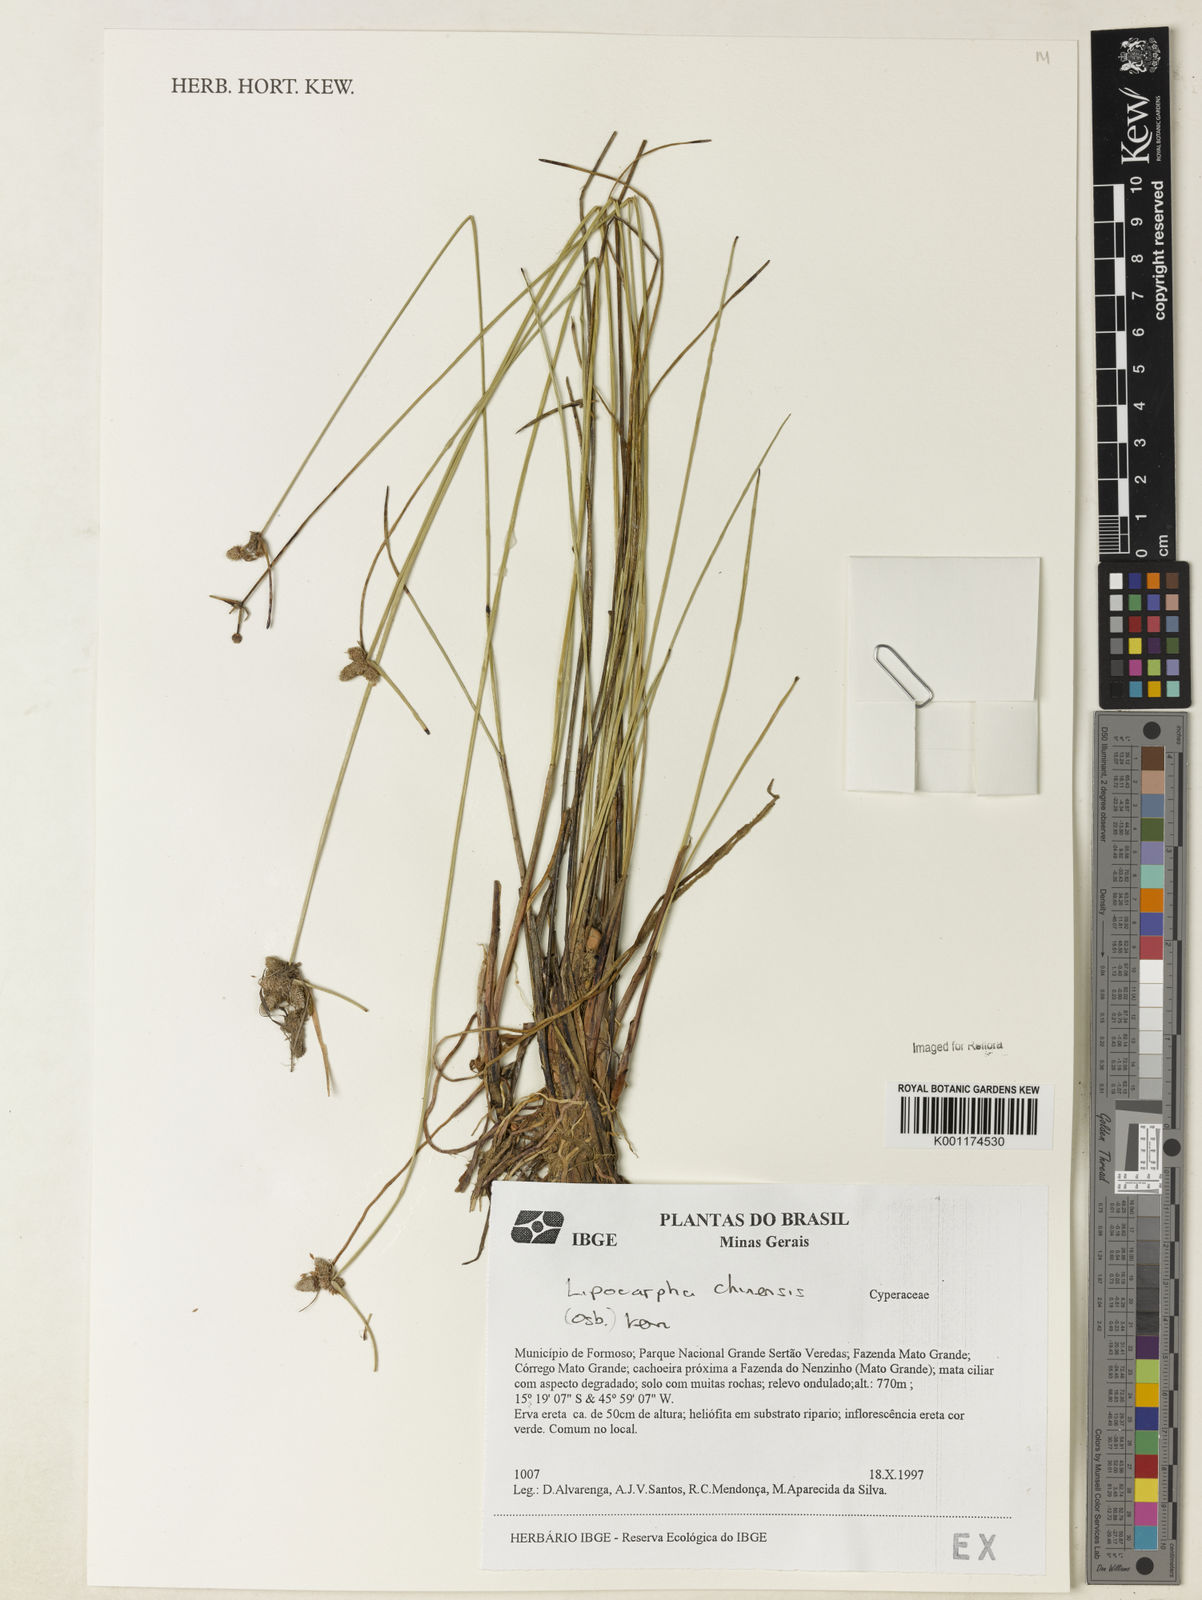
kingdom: Plantae
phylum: Tracheophyta
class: Liliopsida
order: Poales
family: Cyperaceae
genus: Cyperus
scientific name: Cyperus
